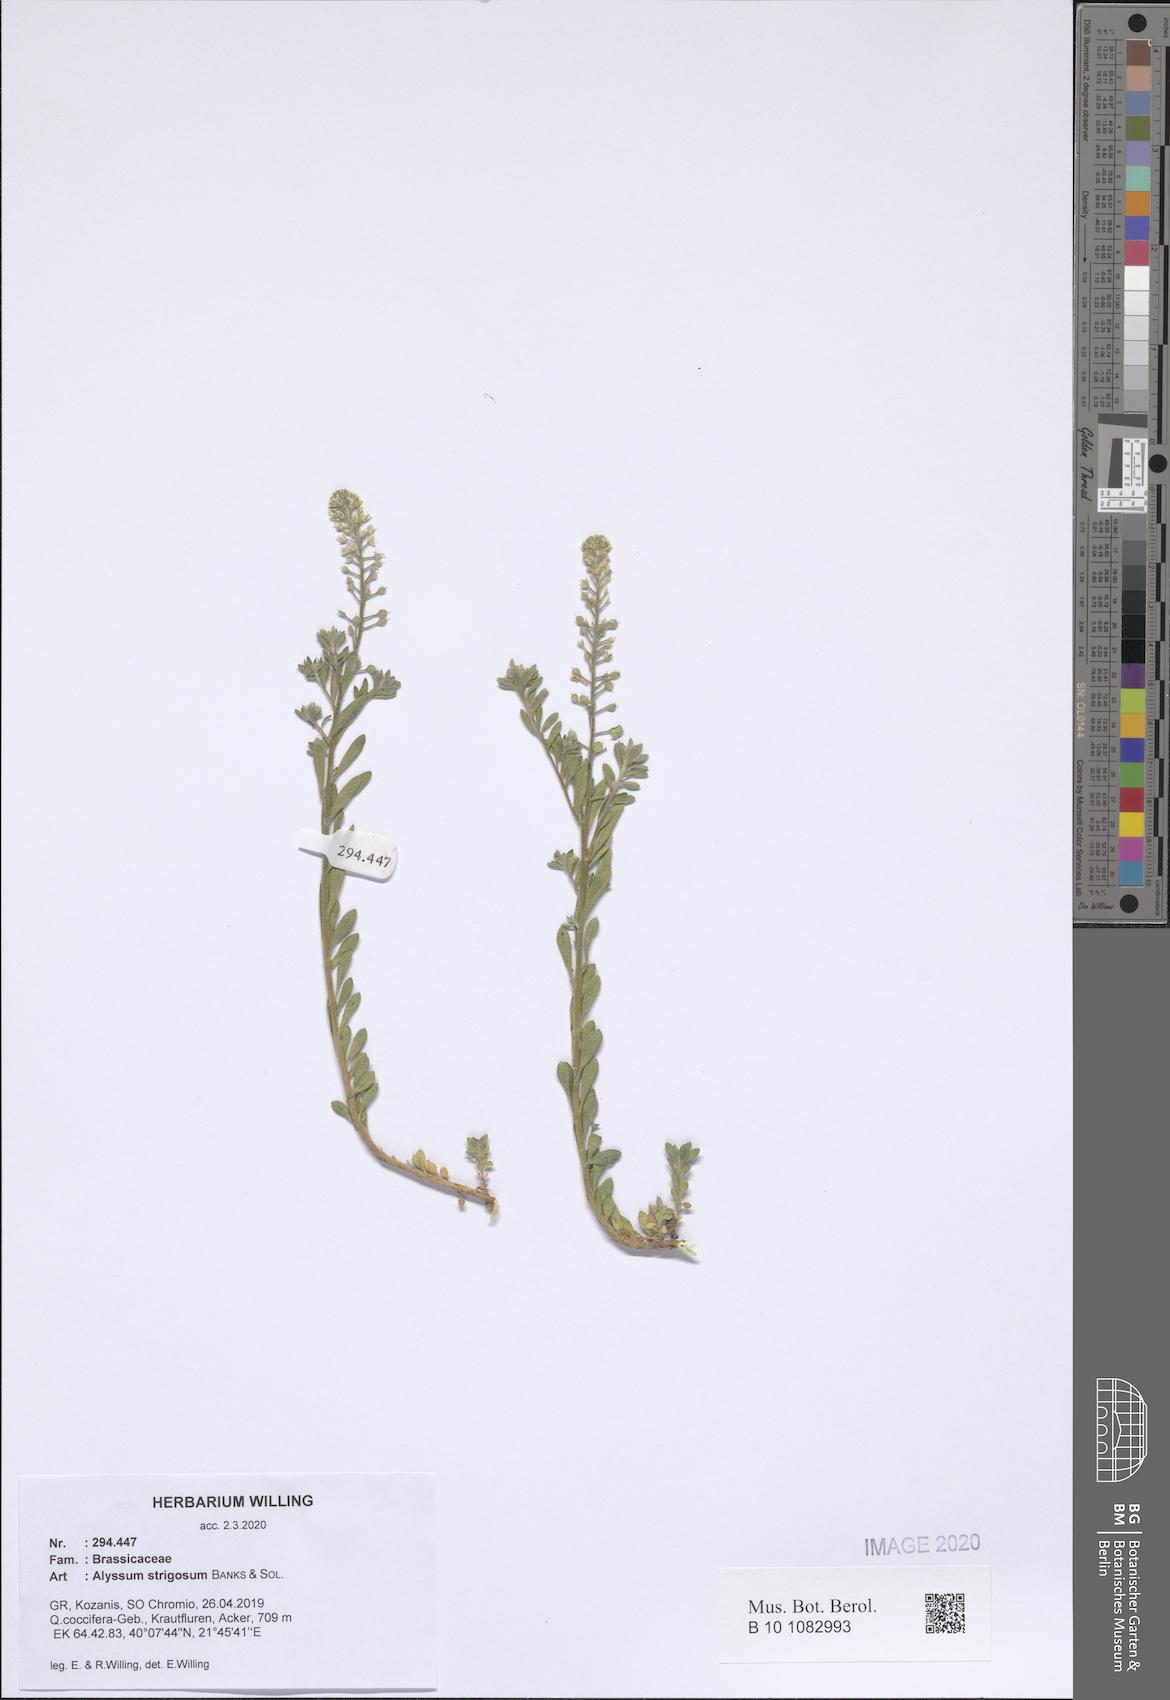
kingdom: Plantae
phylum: Tracheophyta
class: Magnoliopsida
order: Brassicales
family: Brassicaceae
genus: Alyssum
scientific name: Alyssum strigosum
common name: Alyssum
